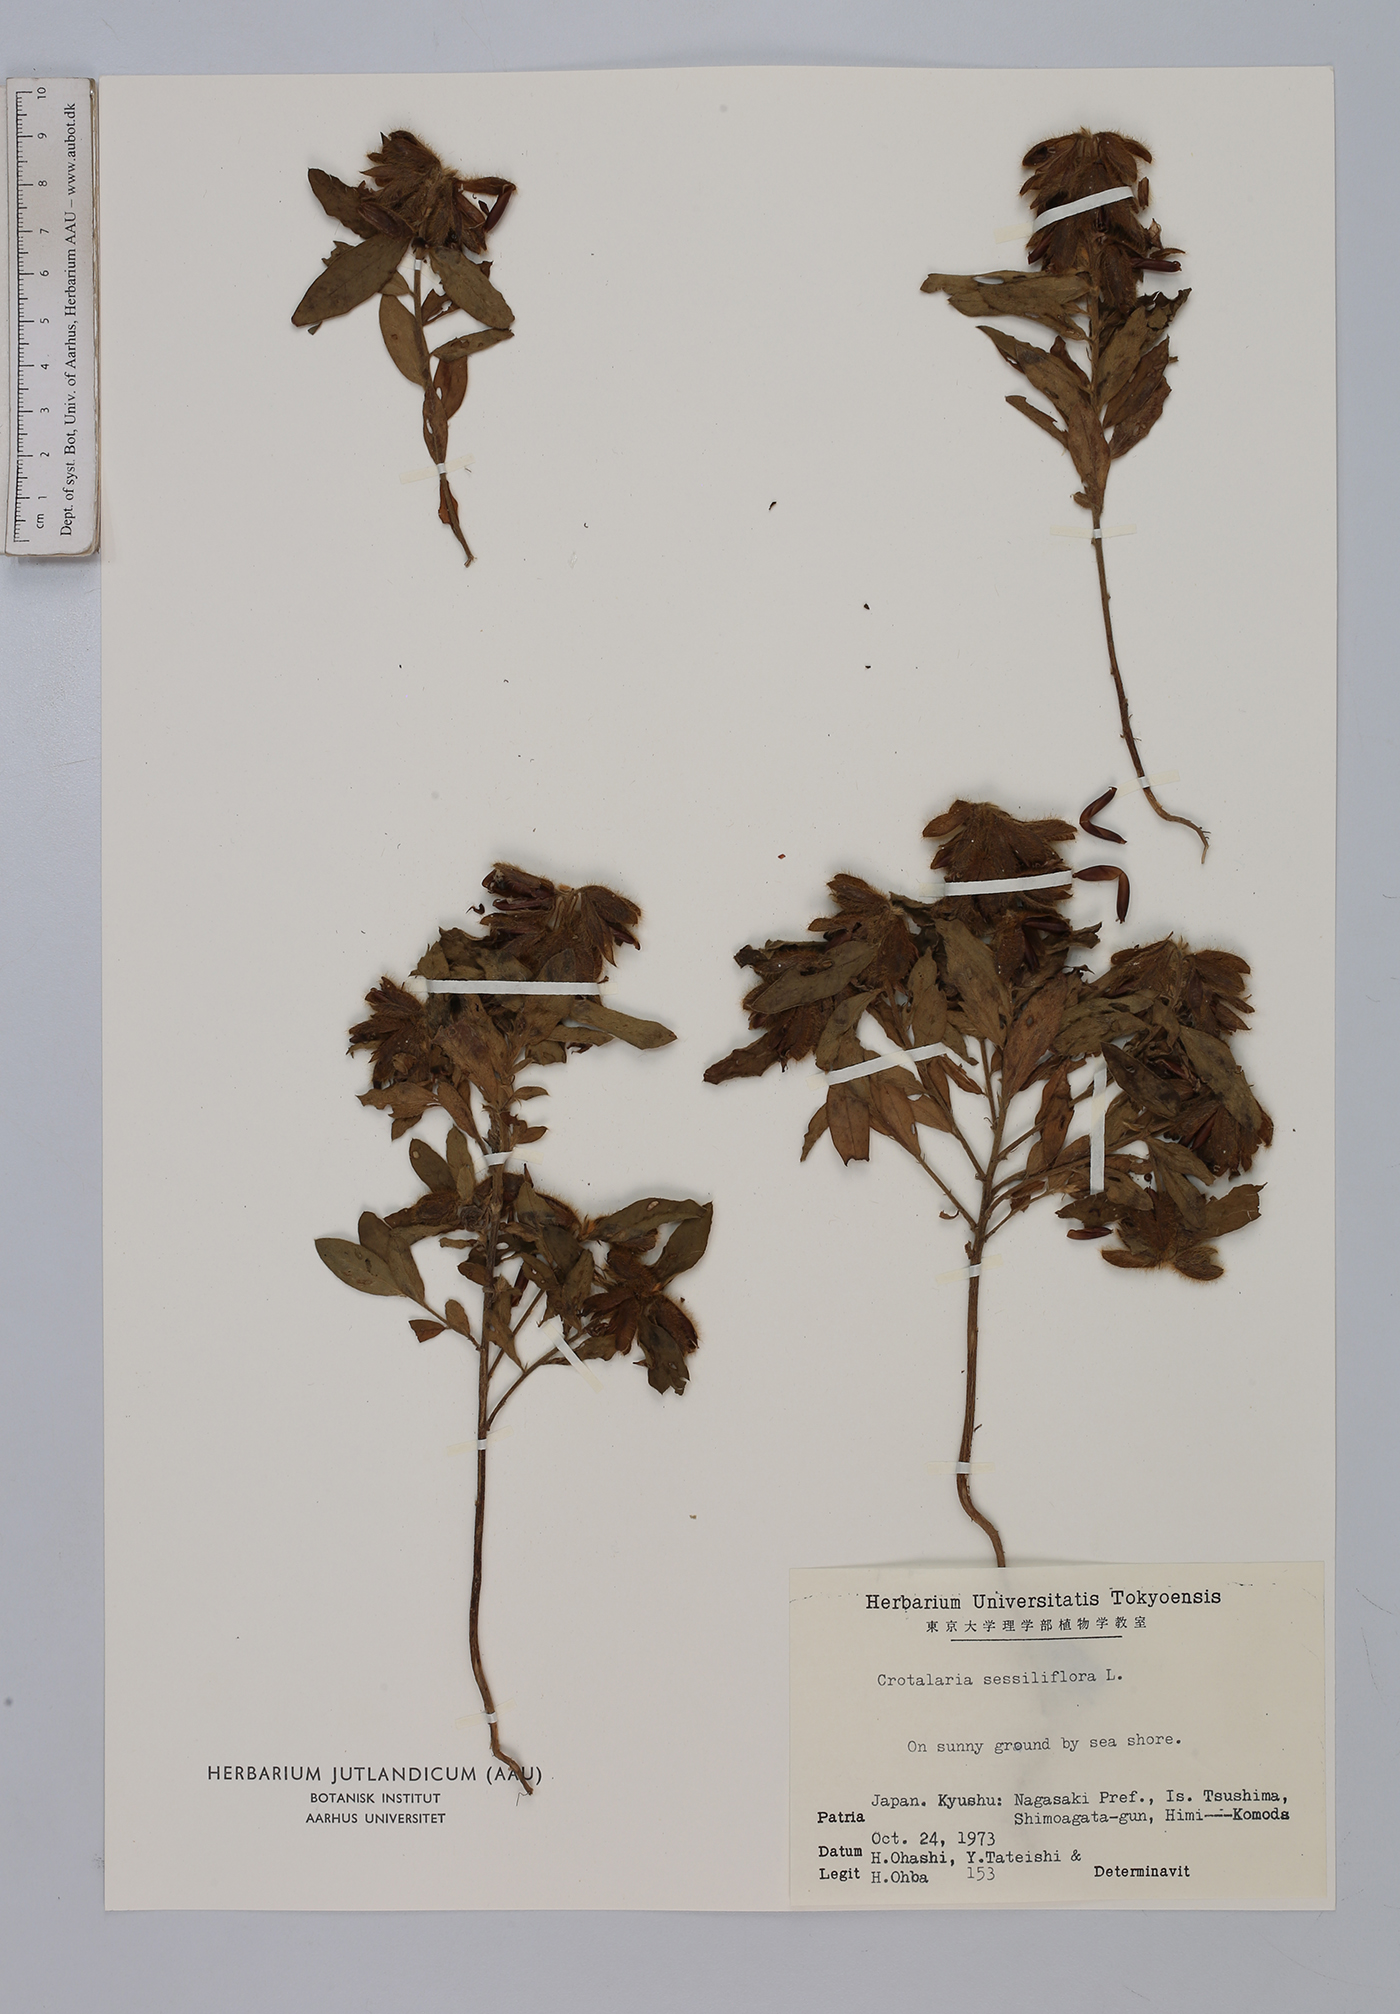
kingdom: Plantae
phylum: Tracheophyta
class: Magnoliopsida
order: Fabales
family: Fabaceae
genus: Crotalaria
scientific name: Crotalaria sessiliflora
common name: Rattlebox
